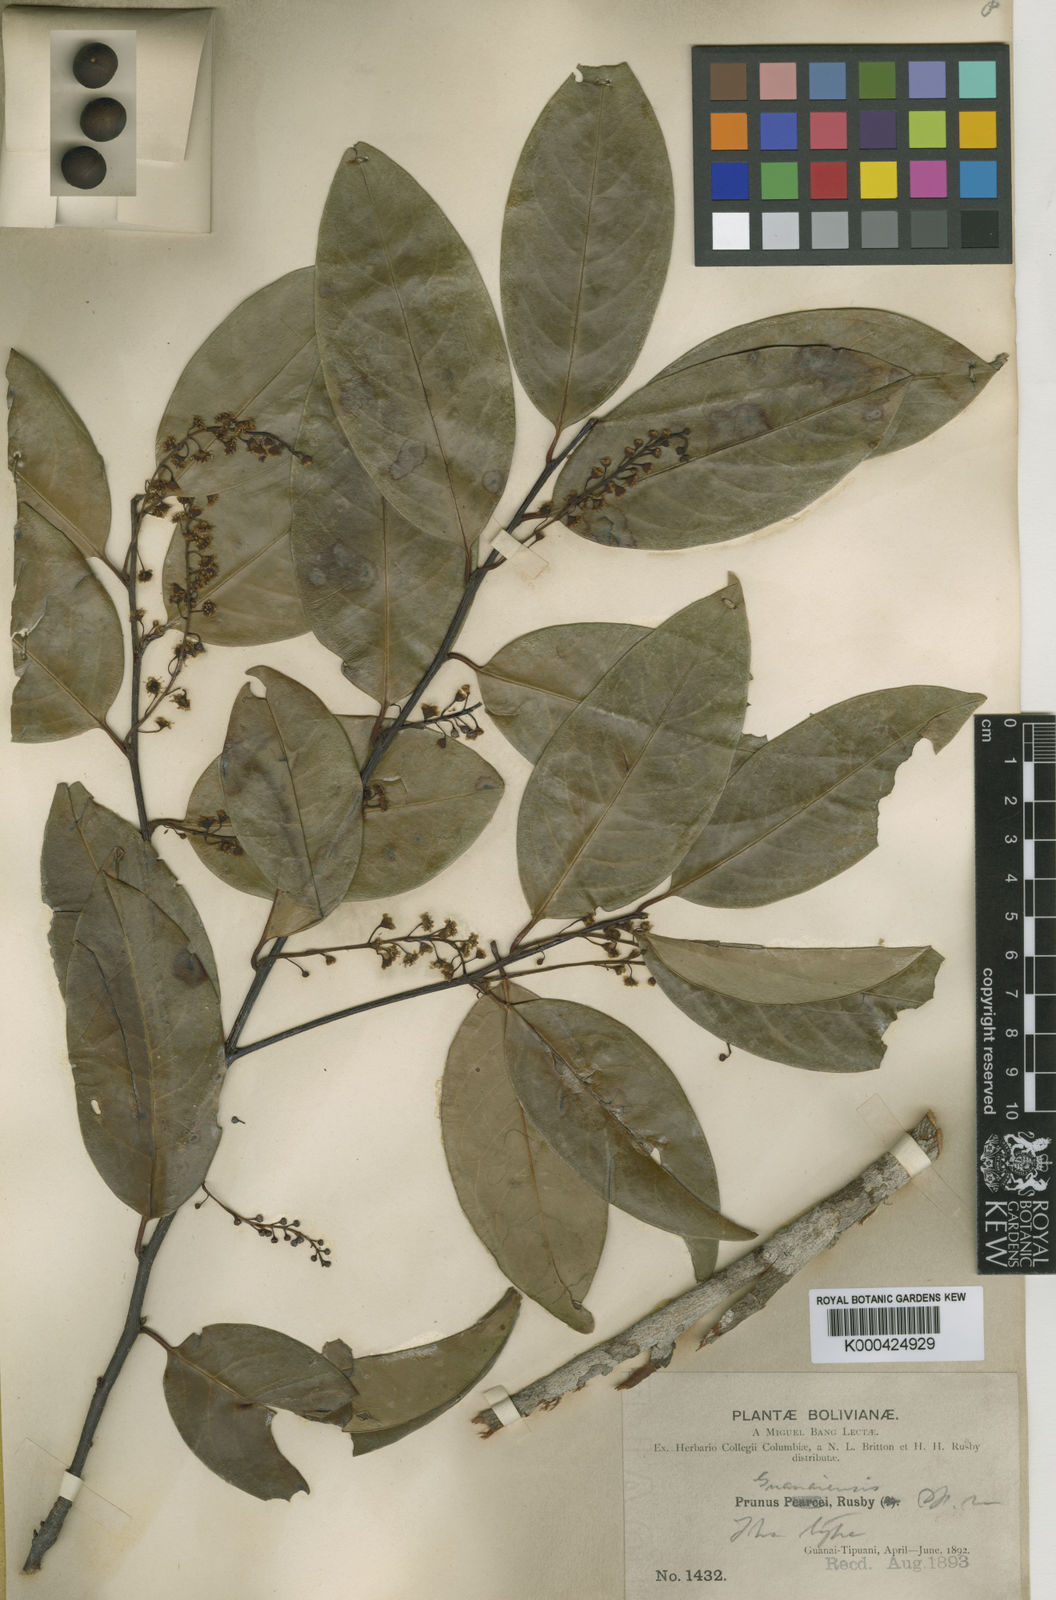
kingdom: Plantae
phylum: Tracheophyta
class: Magnoliopsida
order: Rosales
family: Rosaceae
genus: Prunus
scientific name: Prunus guanaiensis
